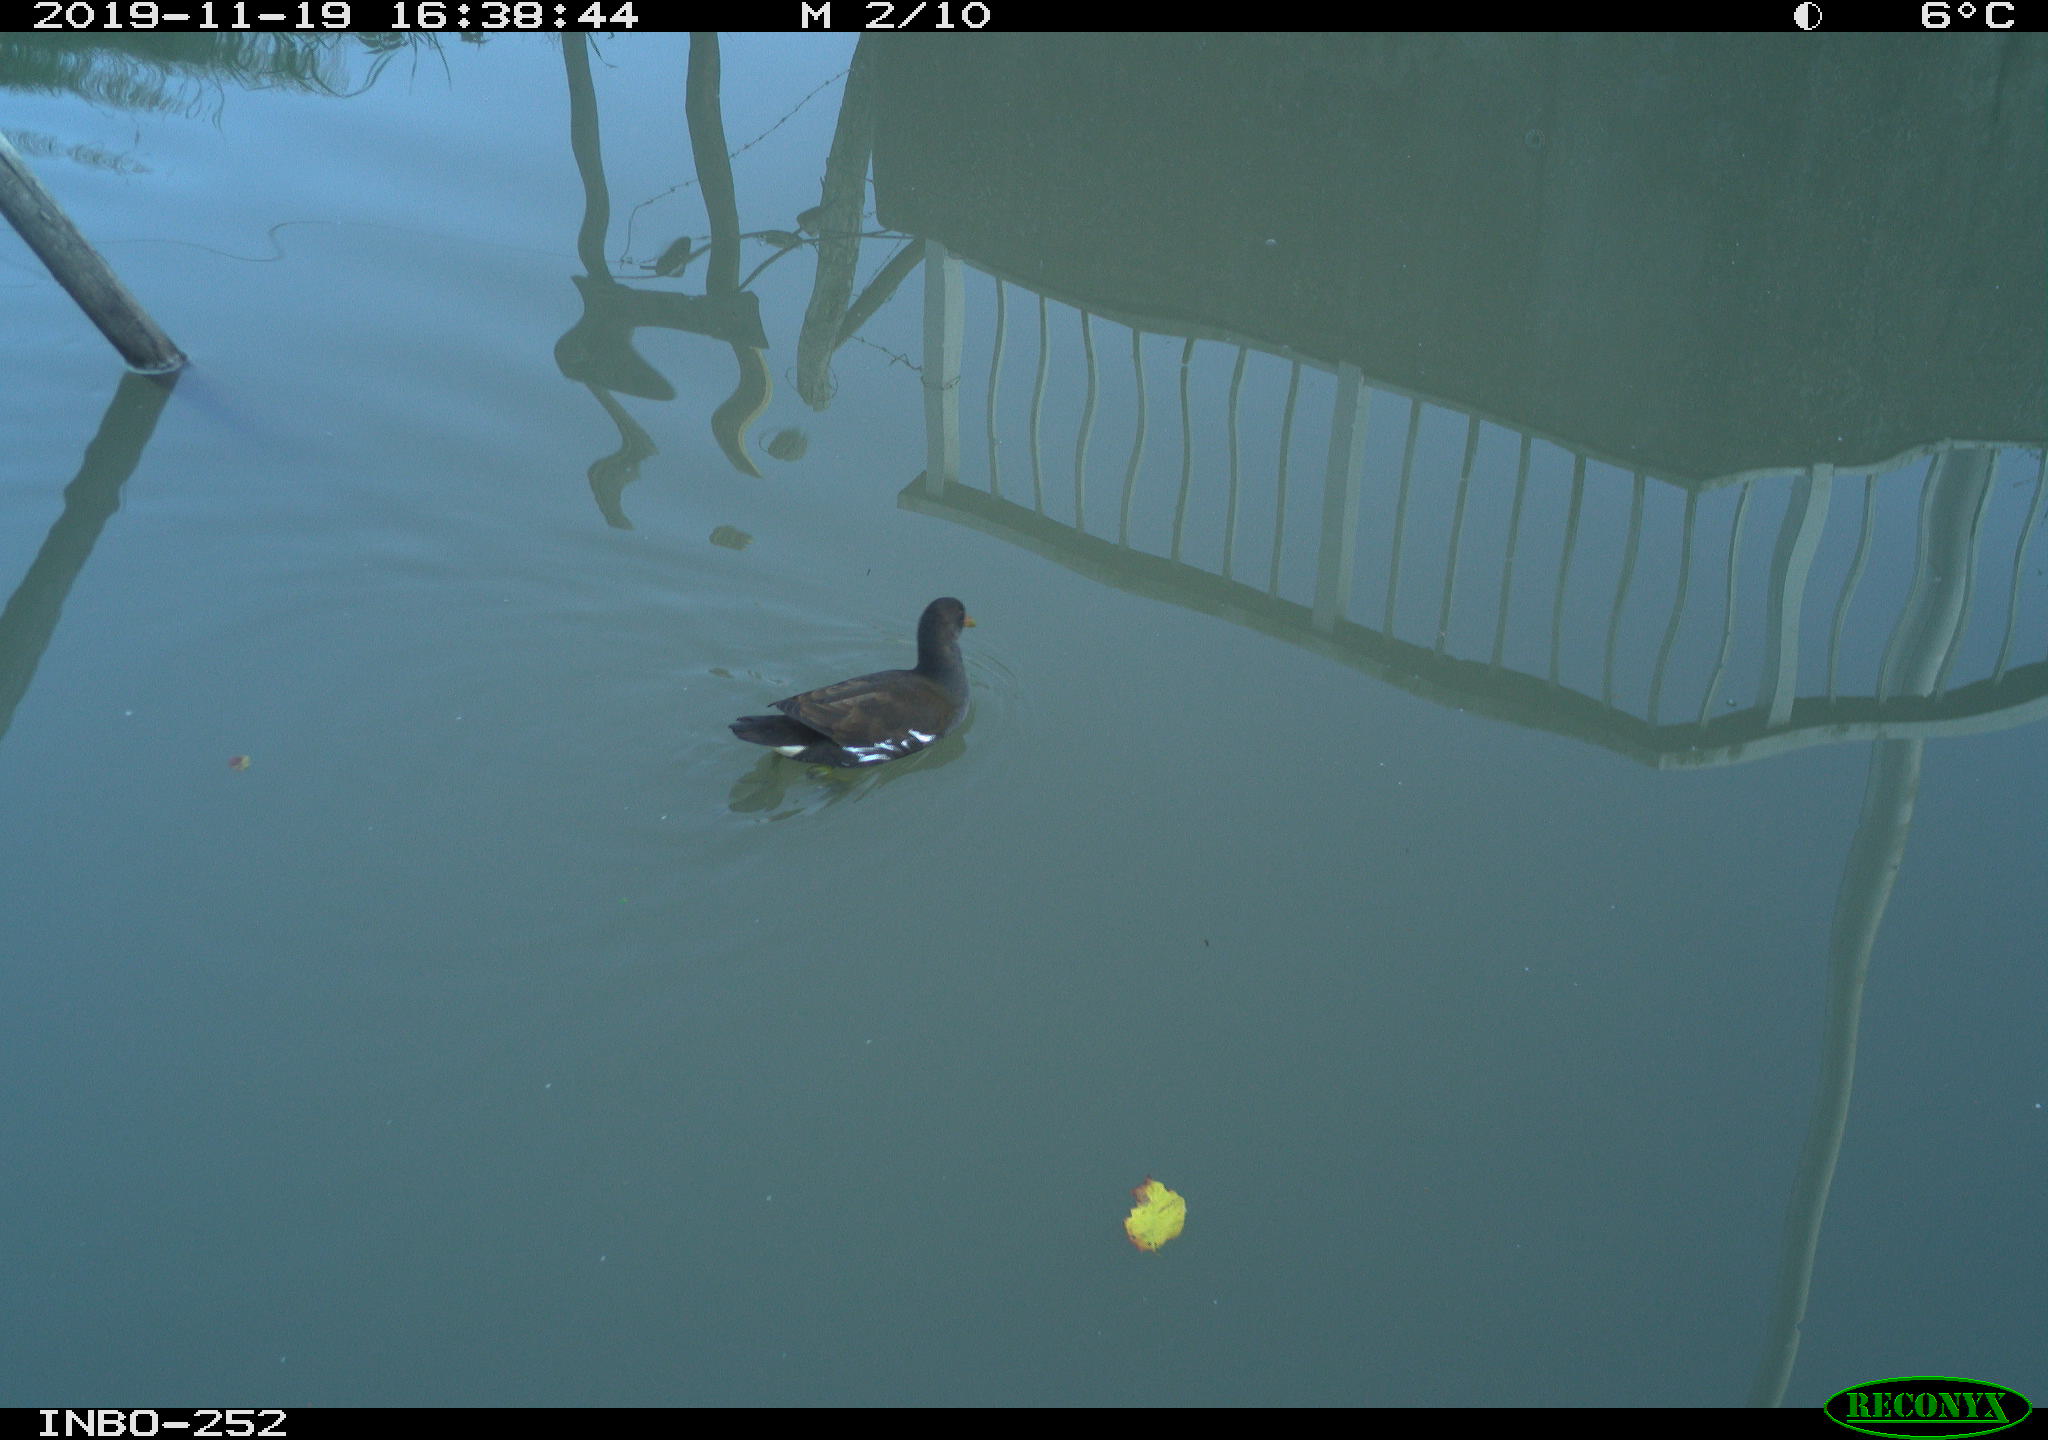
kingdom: Animalia
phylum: Chordata
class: Aves
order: Gruiformes
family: Rallidae
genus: Gallinula
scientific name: Gallinula chloropus
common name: Common moorhen
